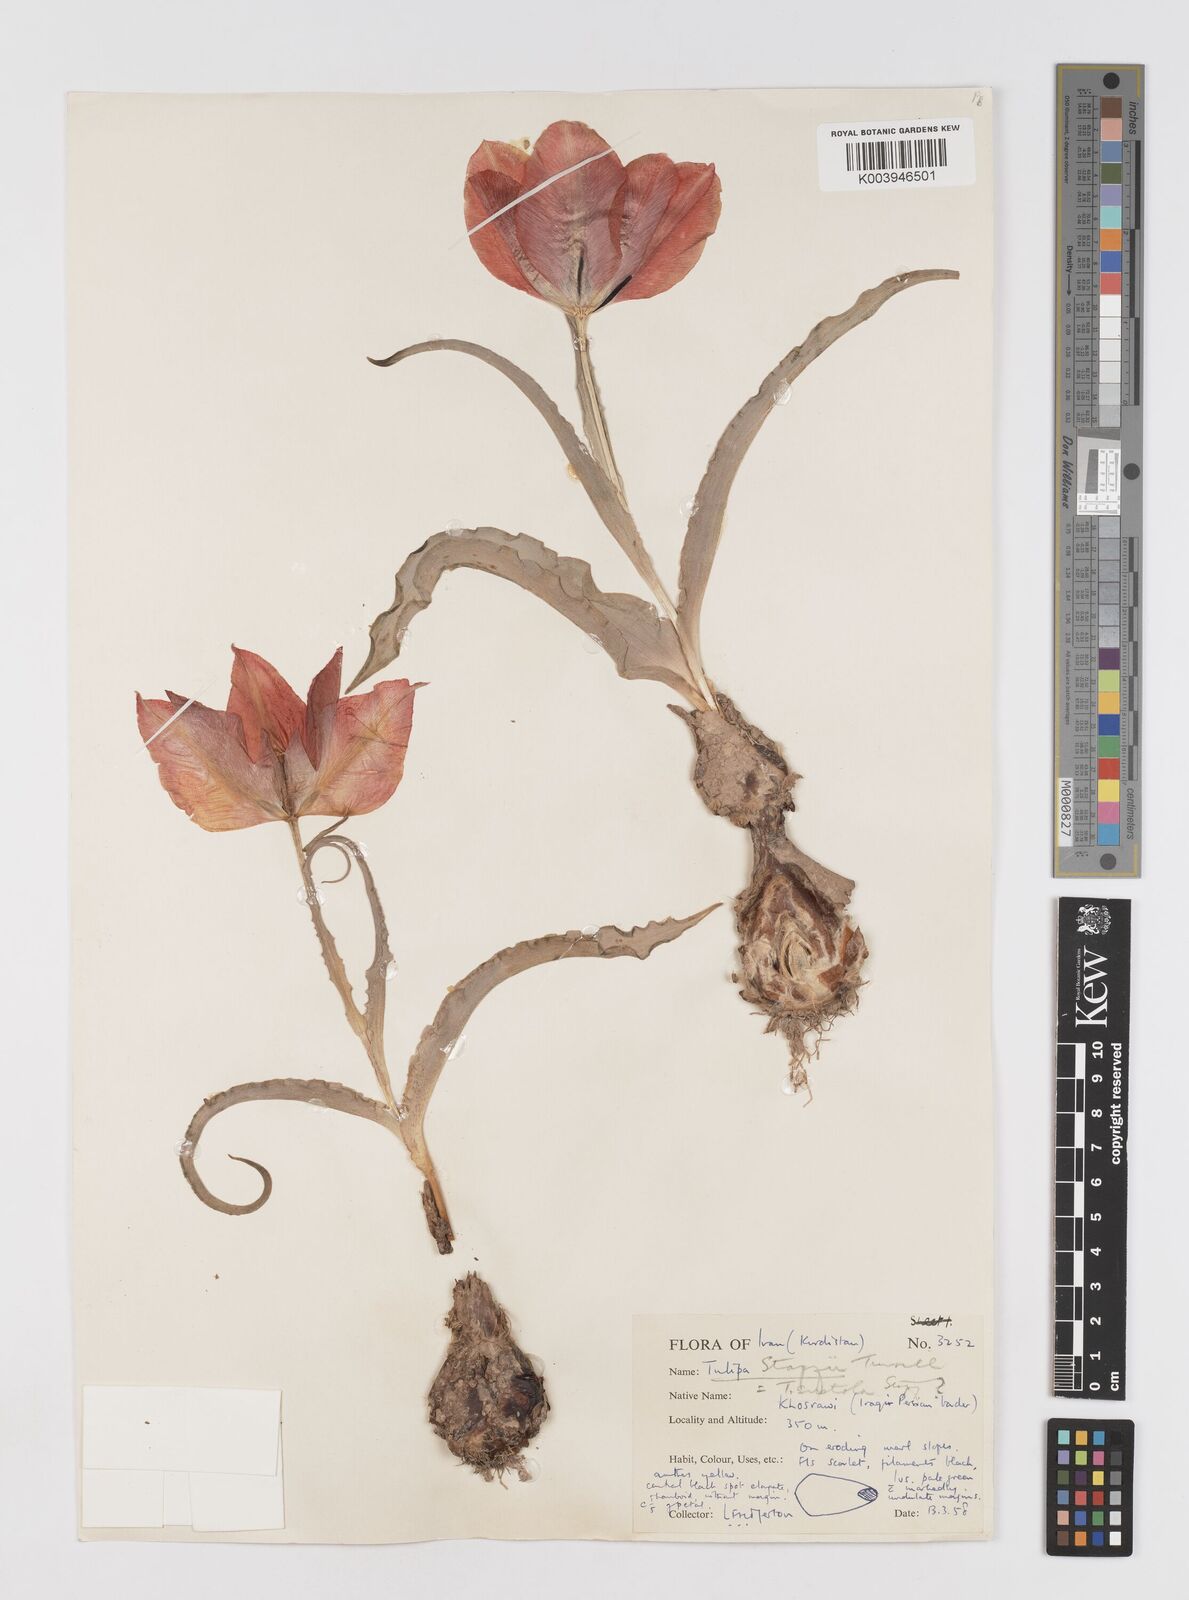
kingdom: Plantae
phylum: Tracheophyta
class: Liliopsida
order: Liliales
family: Liliaceae
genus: Tulipa
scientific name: Tulipa systola
